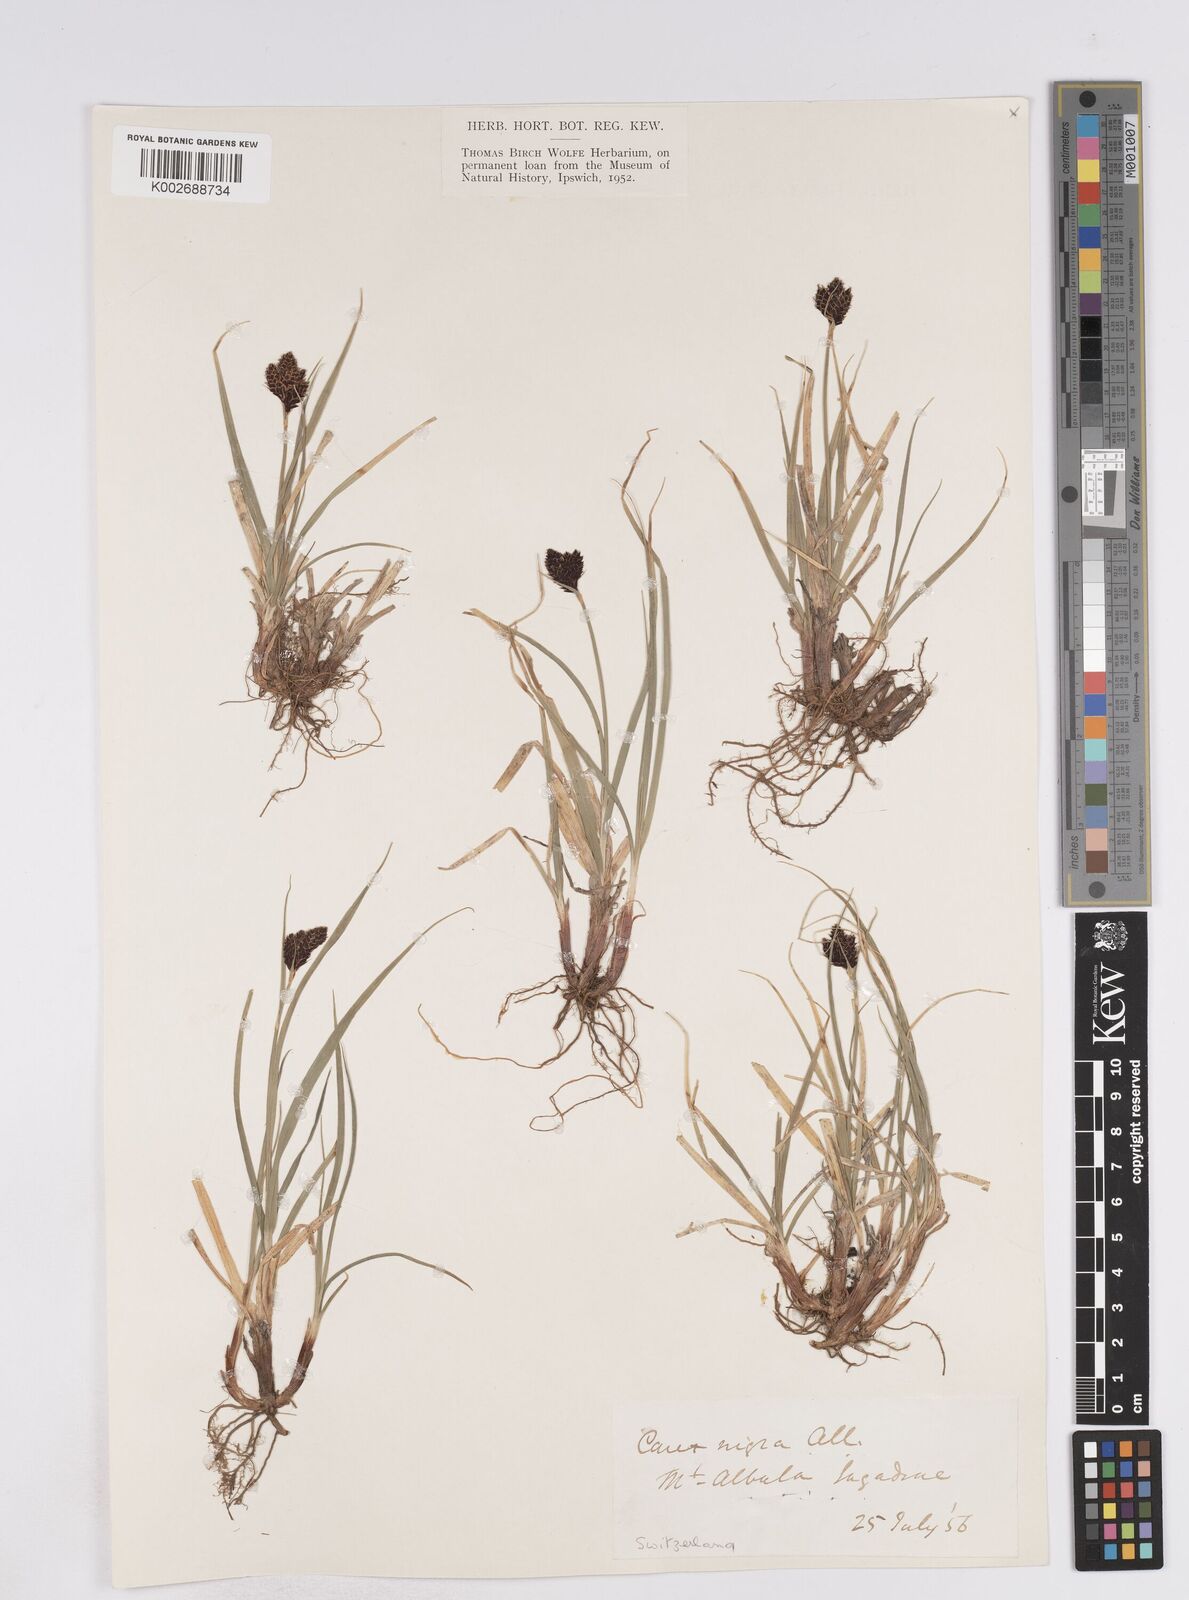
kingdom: Plantae
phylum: Tracheophyta
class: Liliopsida
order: Poales
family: Cyperaceae
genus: Carex
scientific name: Carex parviflora
